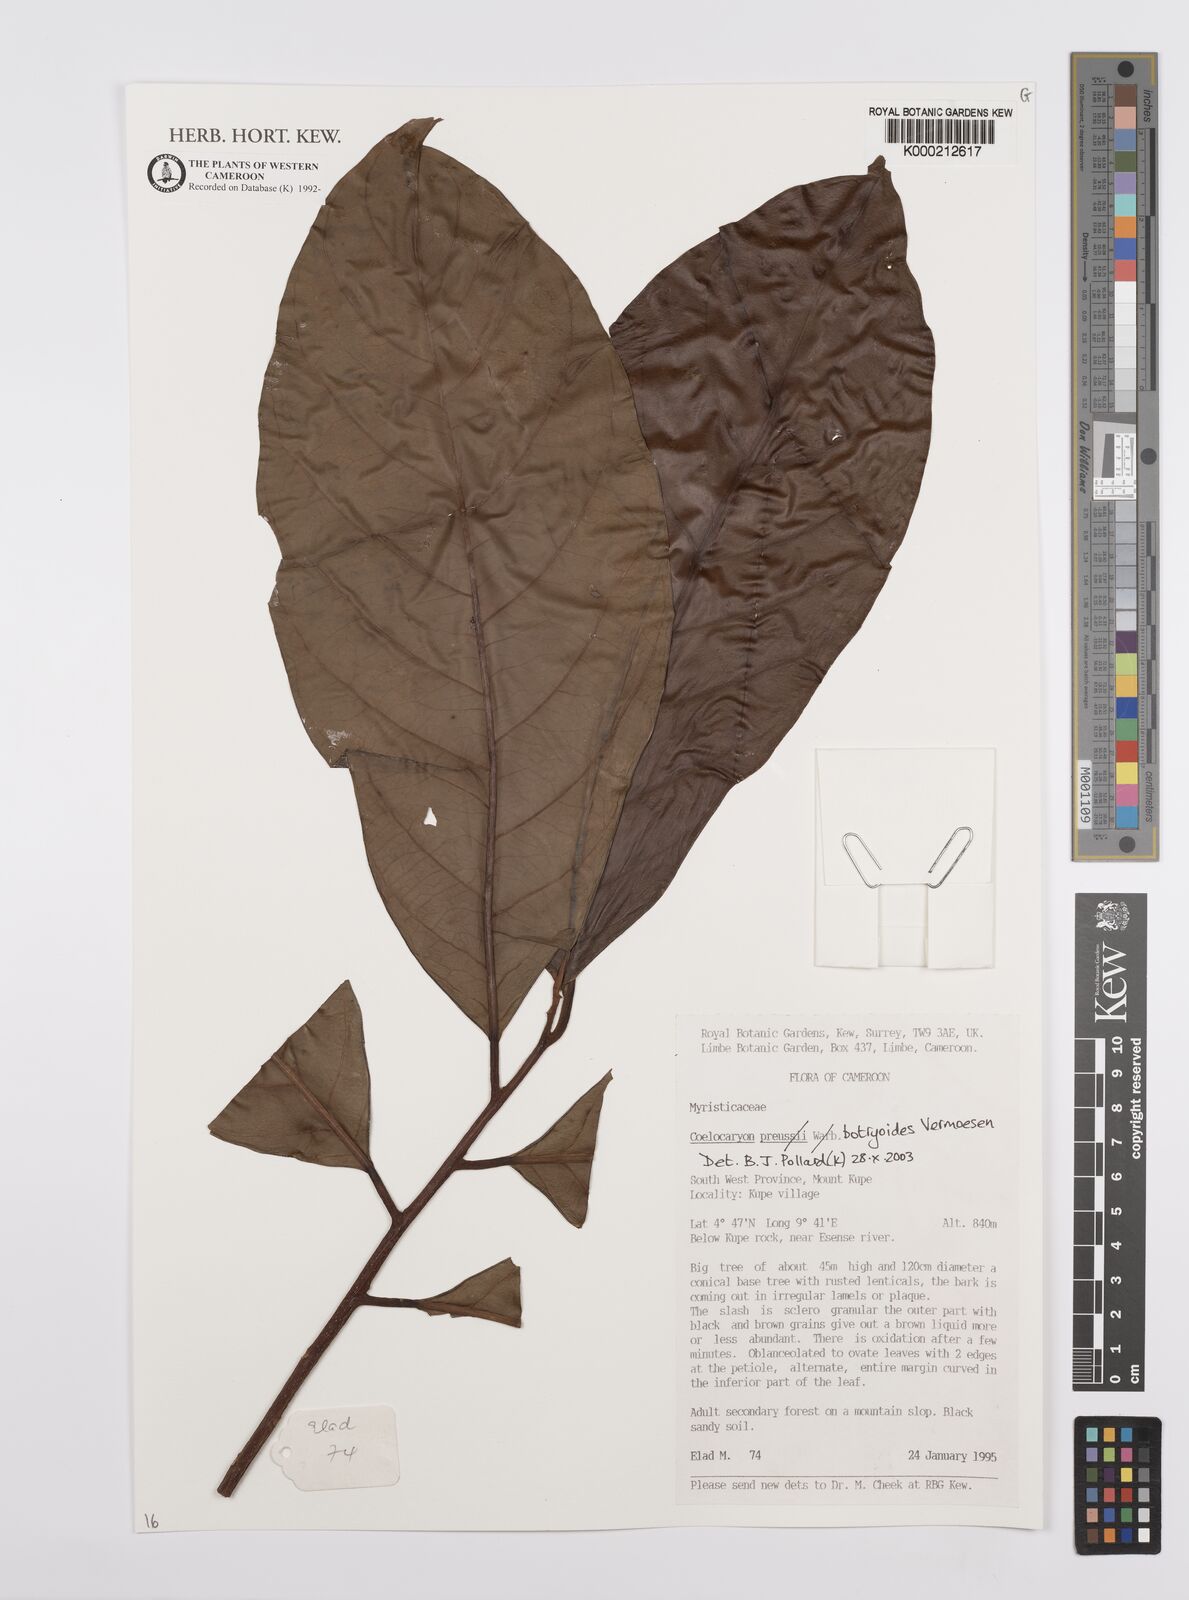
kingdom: Plantae
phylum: Tracheophyta
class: Magnoliopsida
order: Magnoliales
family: Myristicaceae
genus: Coelocaryon
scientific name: Coelocaryon preussii
